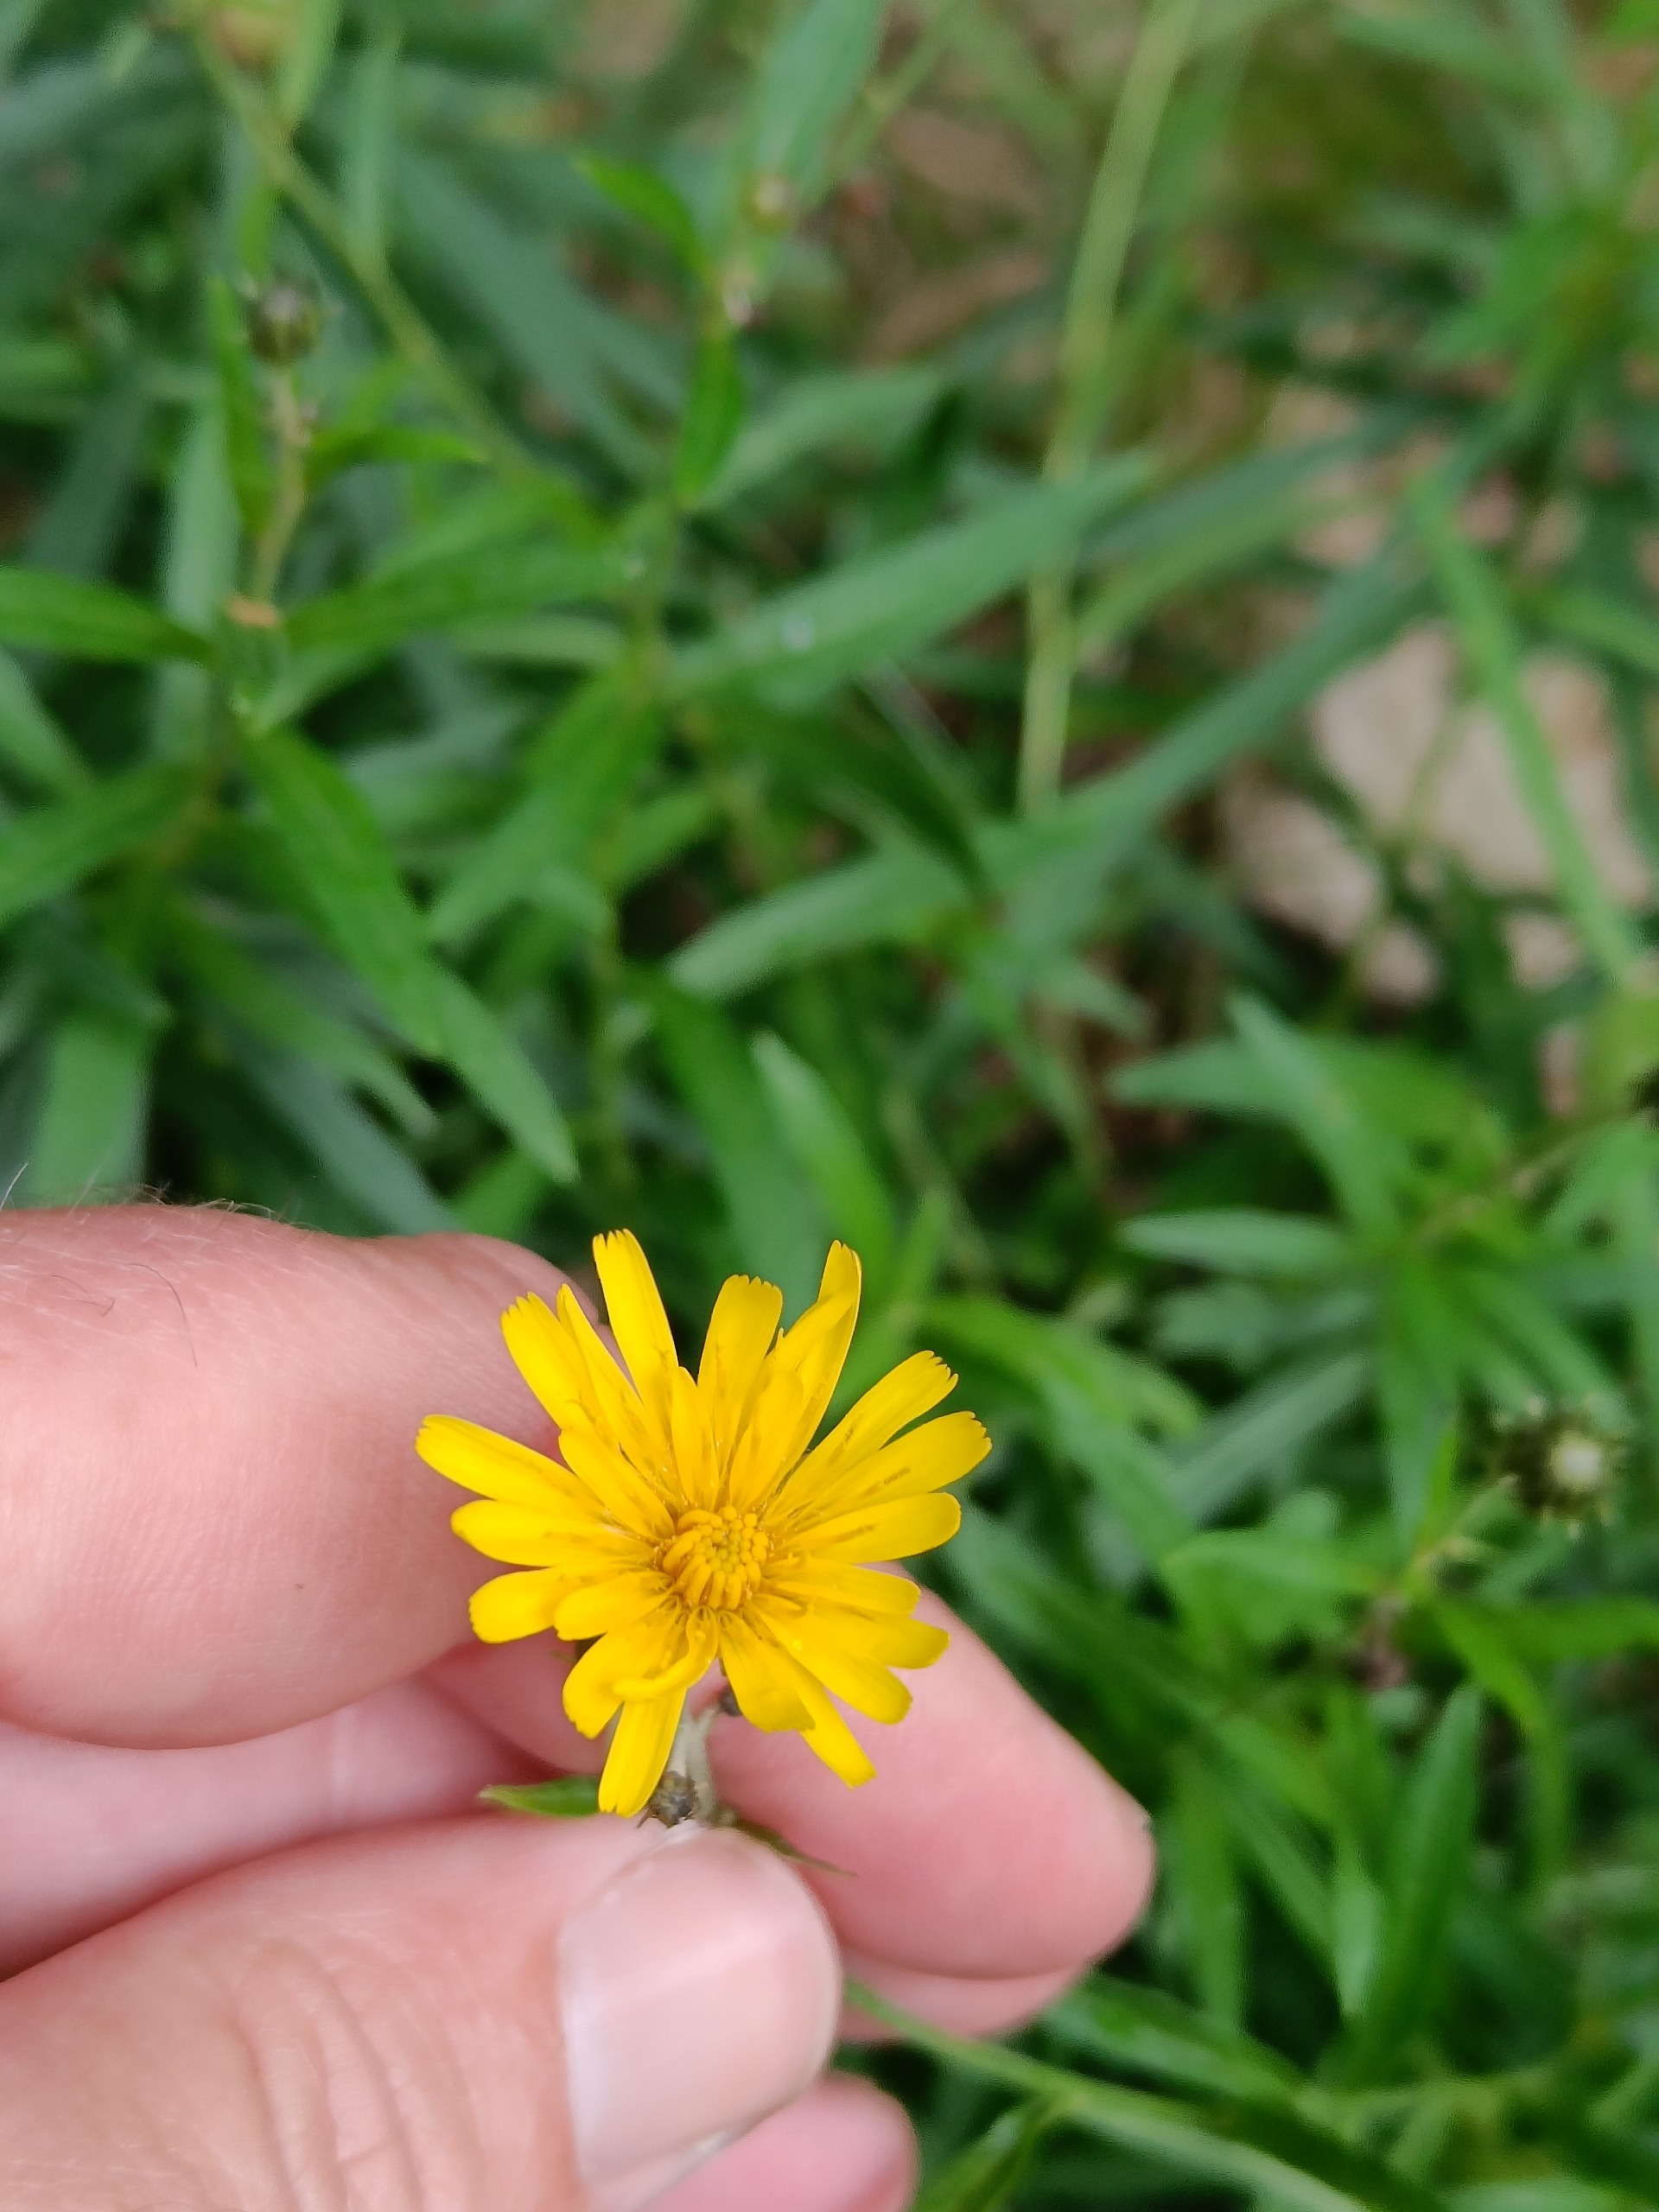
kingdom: Plantae
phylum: Tracheophyta
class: Magnoliopsida
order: Asterales
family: Asteraceae
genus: Hieracium
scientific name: Hieracium umbellatum
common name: Smalbladet høgeurt
